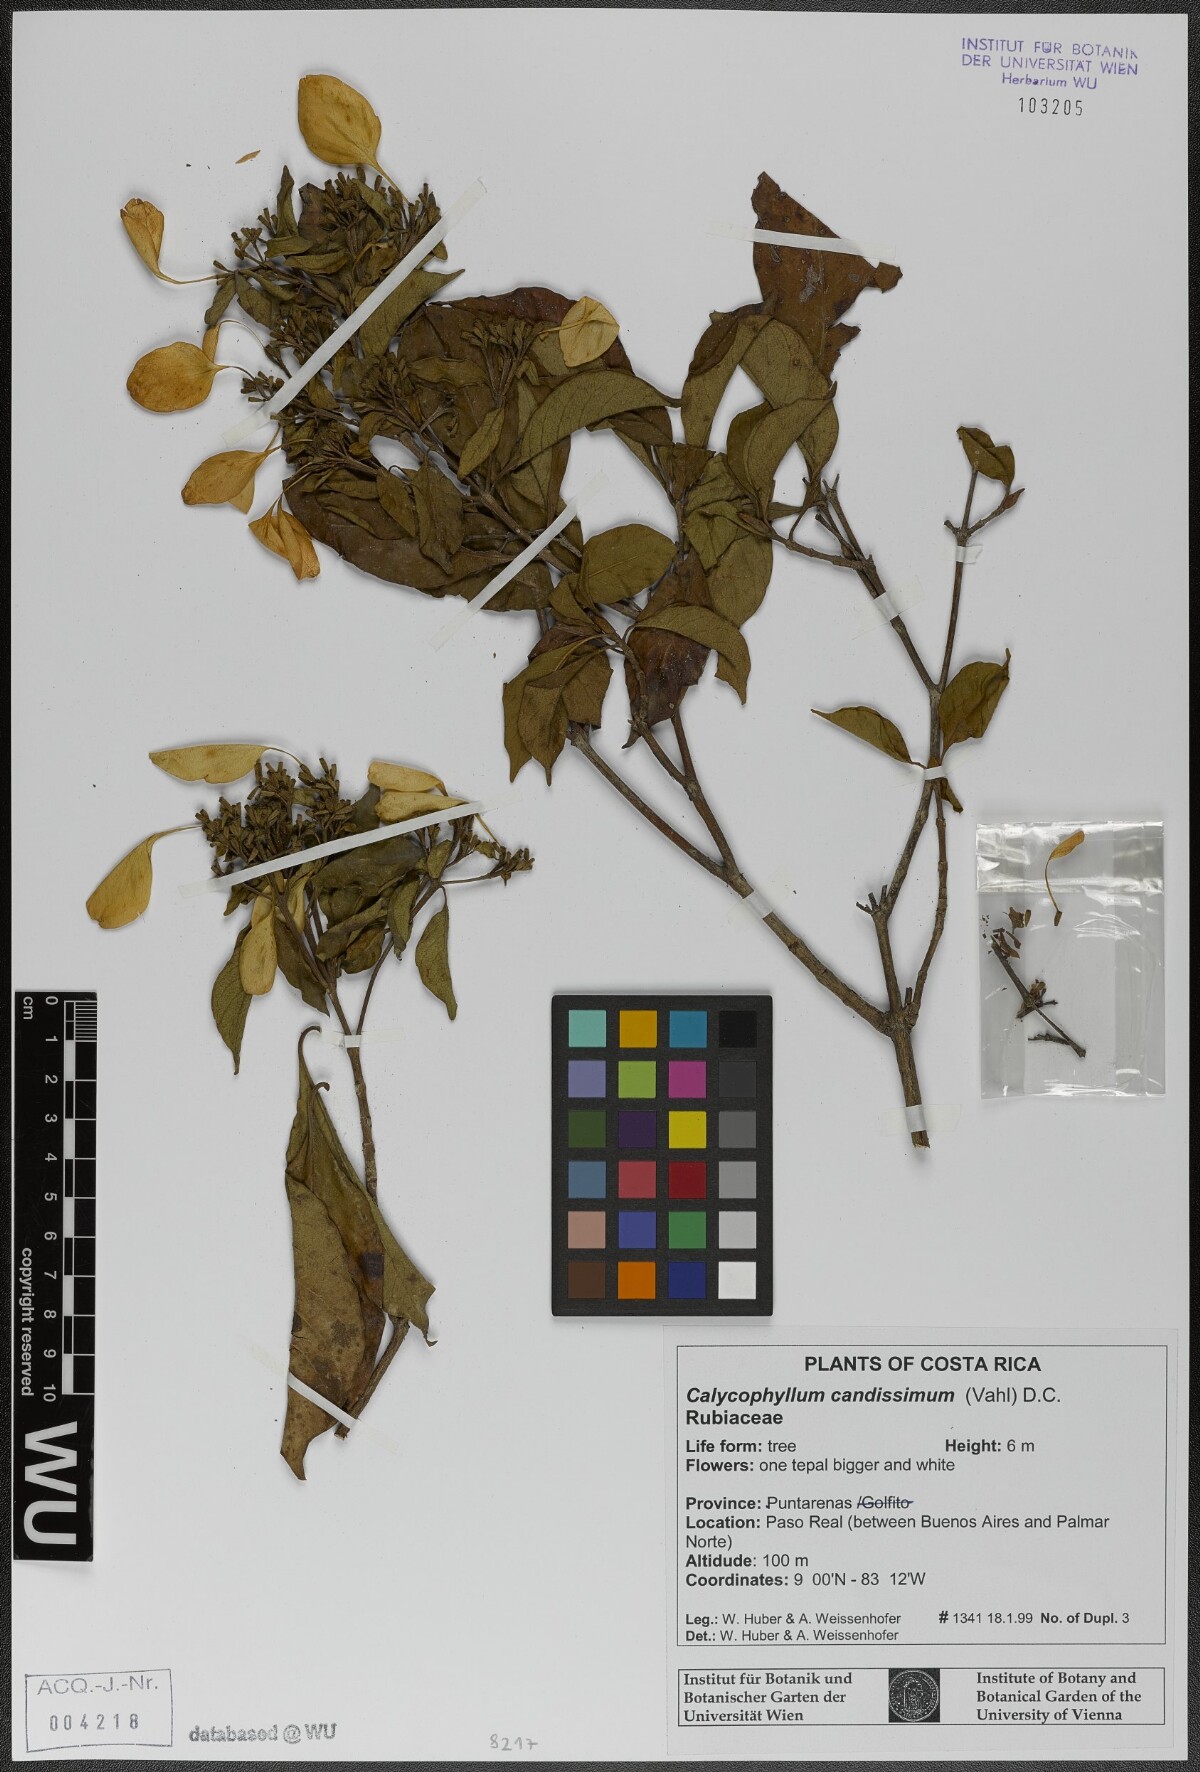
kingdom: Plantae
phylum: Tracheophyta
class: Magnoliopsida
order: Gentianales
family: Rubiaceae
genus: Calycophyllum
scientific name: Calycophyllum candidissimum
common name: Dagame
